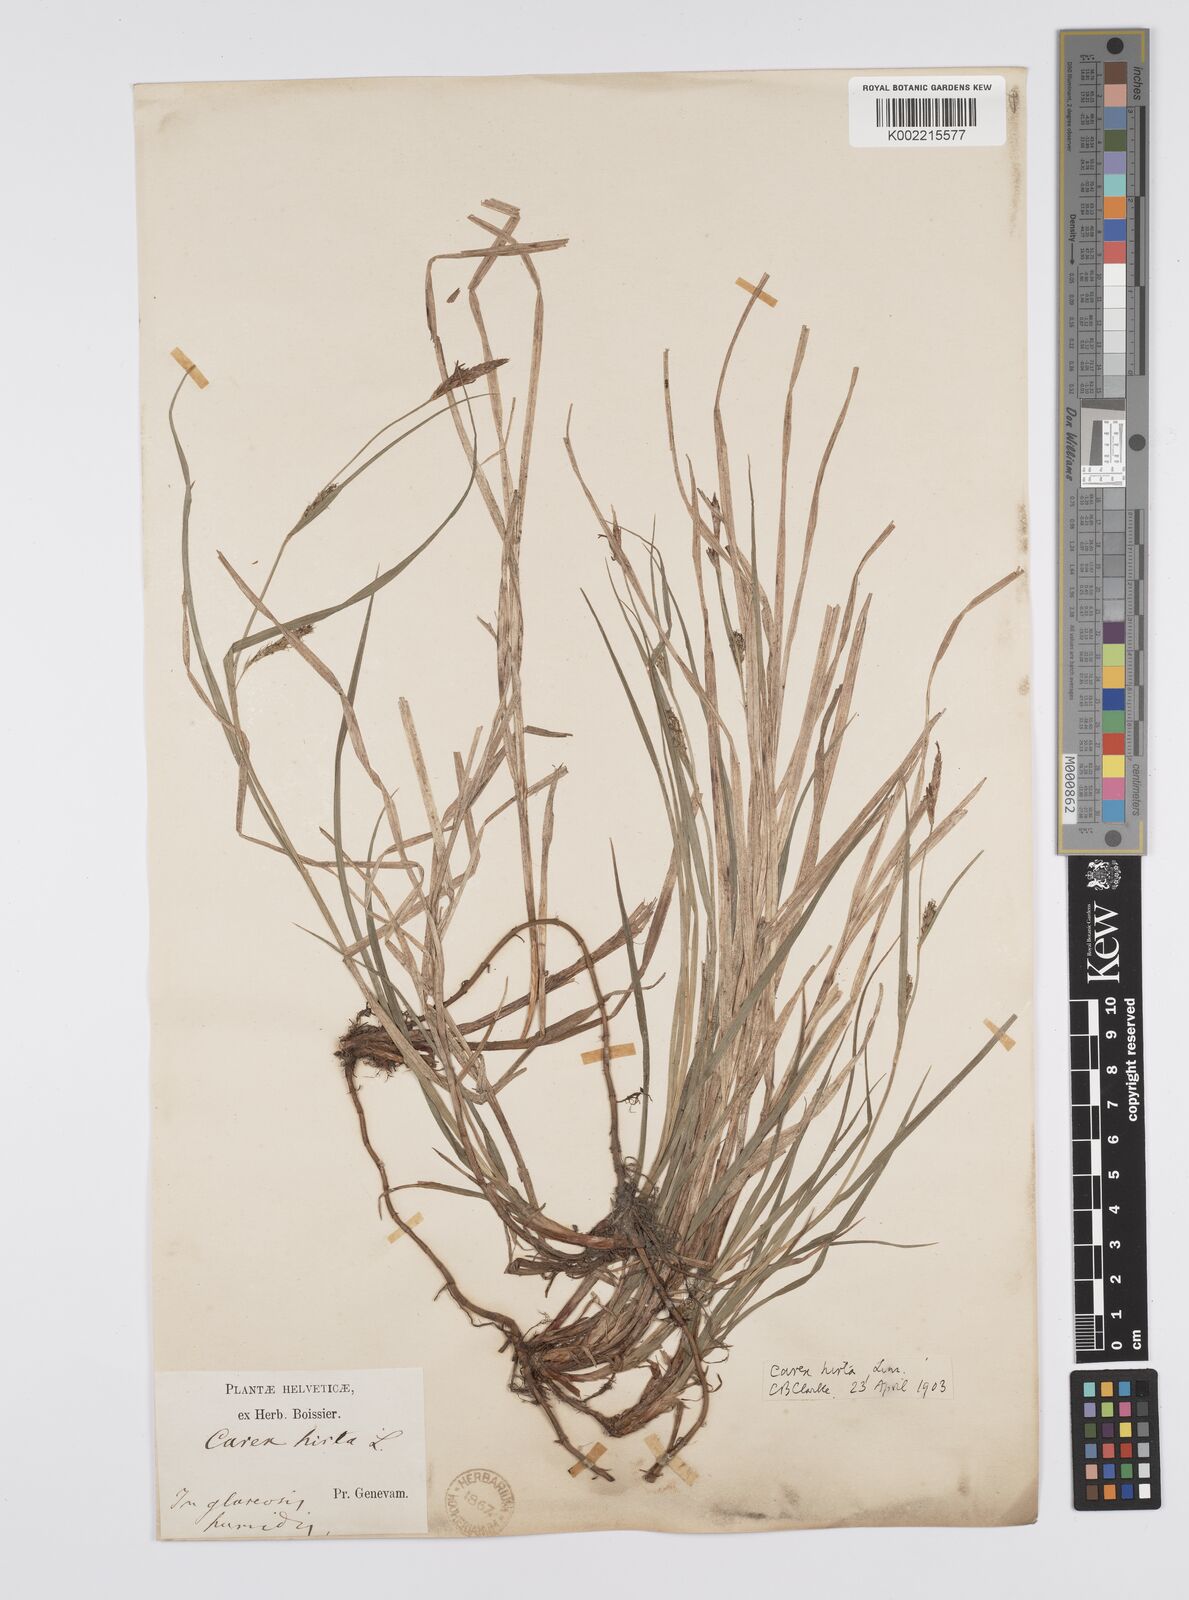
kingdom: Plantae
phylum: Tracheophyta
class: Liliopsida
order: Poales
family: Cyperaceae
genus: Carex
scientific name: Carex hirta
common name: Hairy sedge
